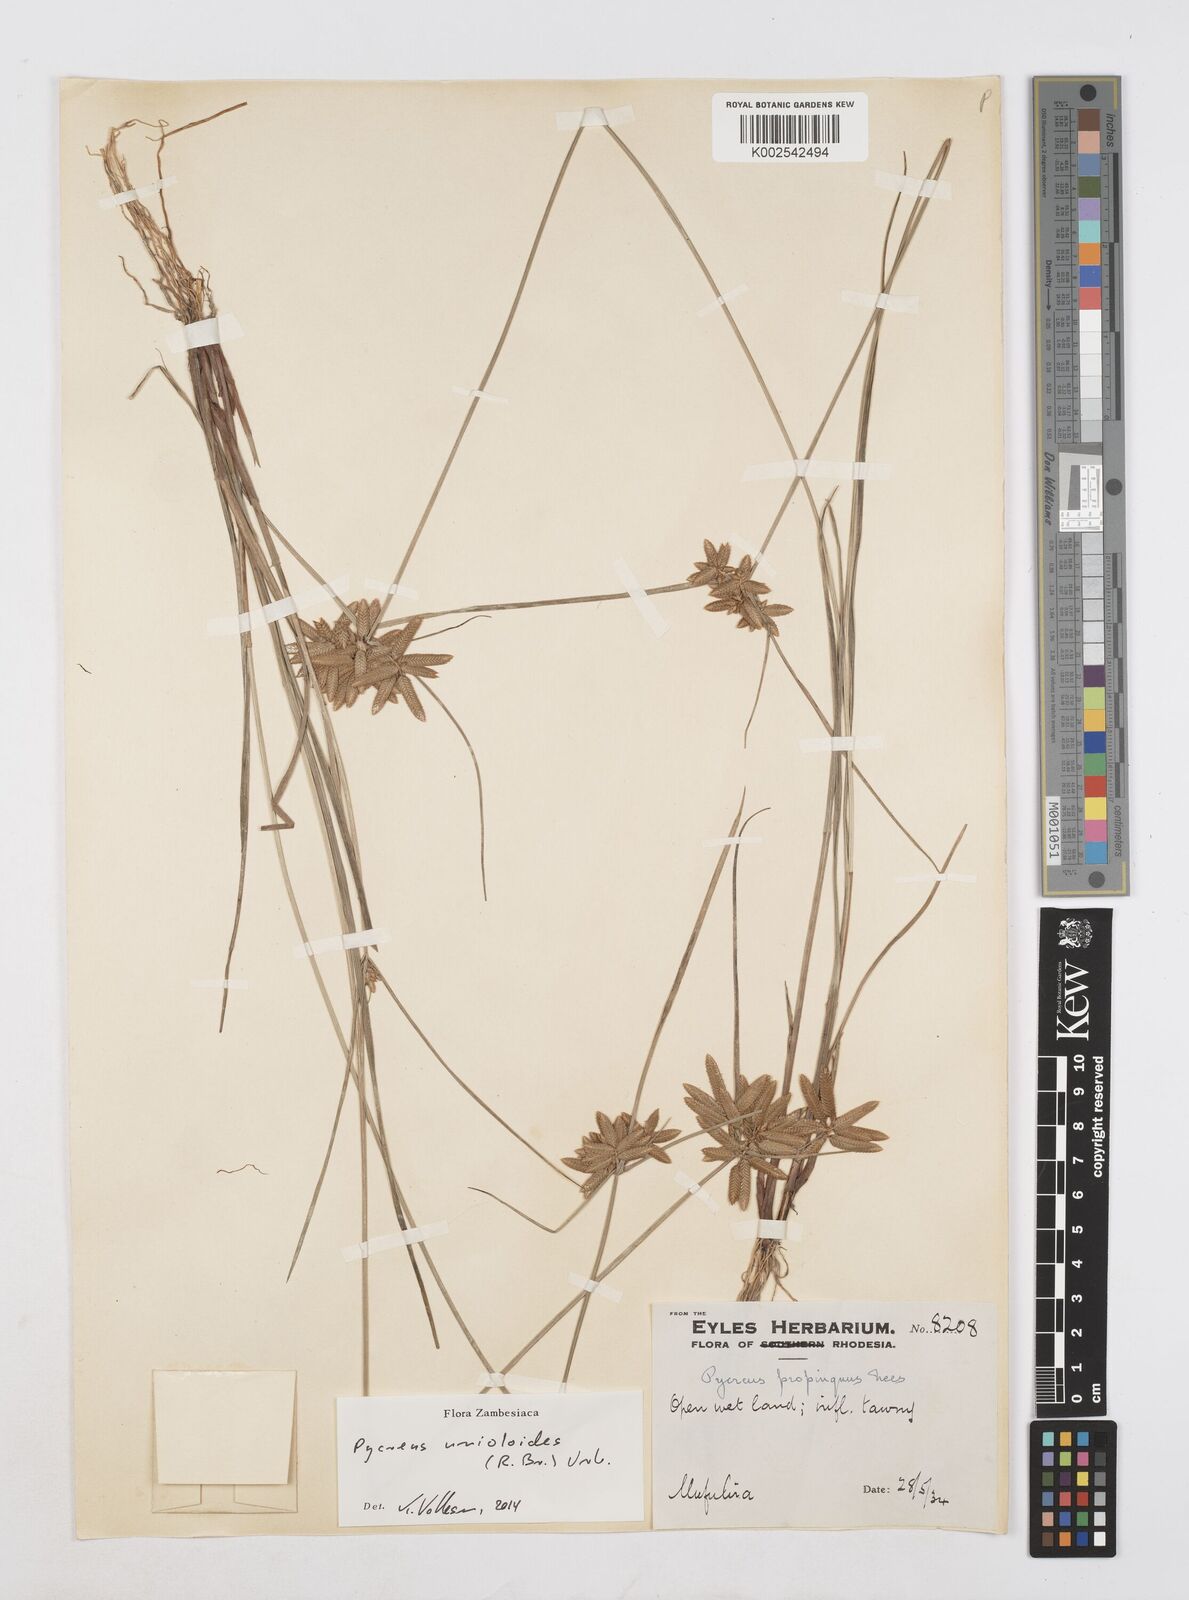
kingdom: Plantae
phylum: Tracheophyta
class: Liliopsida
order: Poales
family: Cyperaceae
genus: Cyperus
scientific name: Cyperus unioloides
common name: Uniola flatsedge
